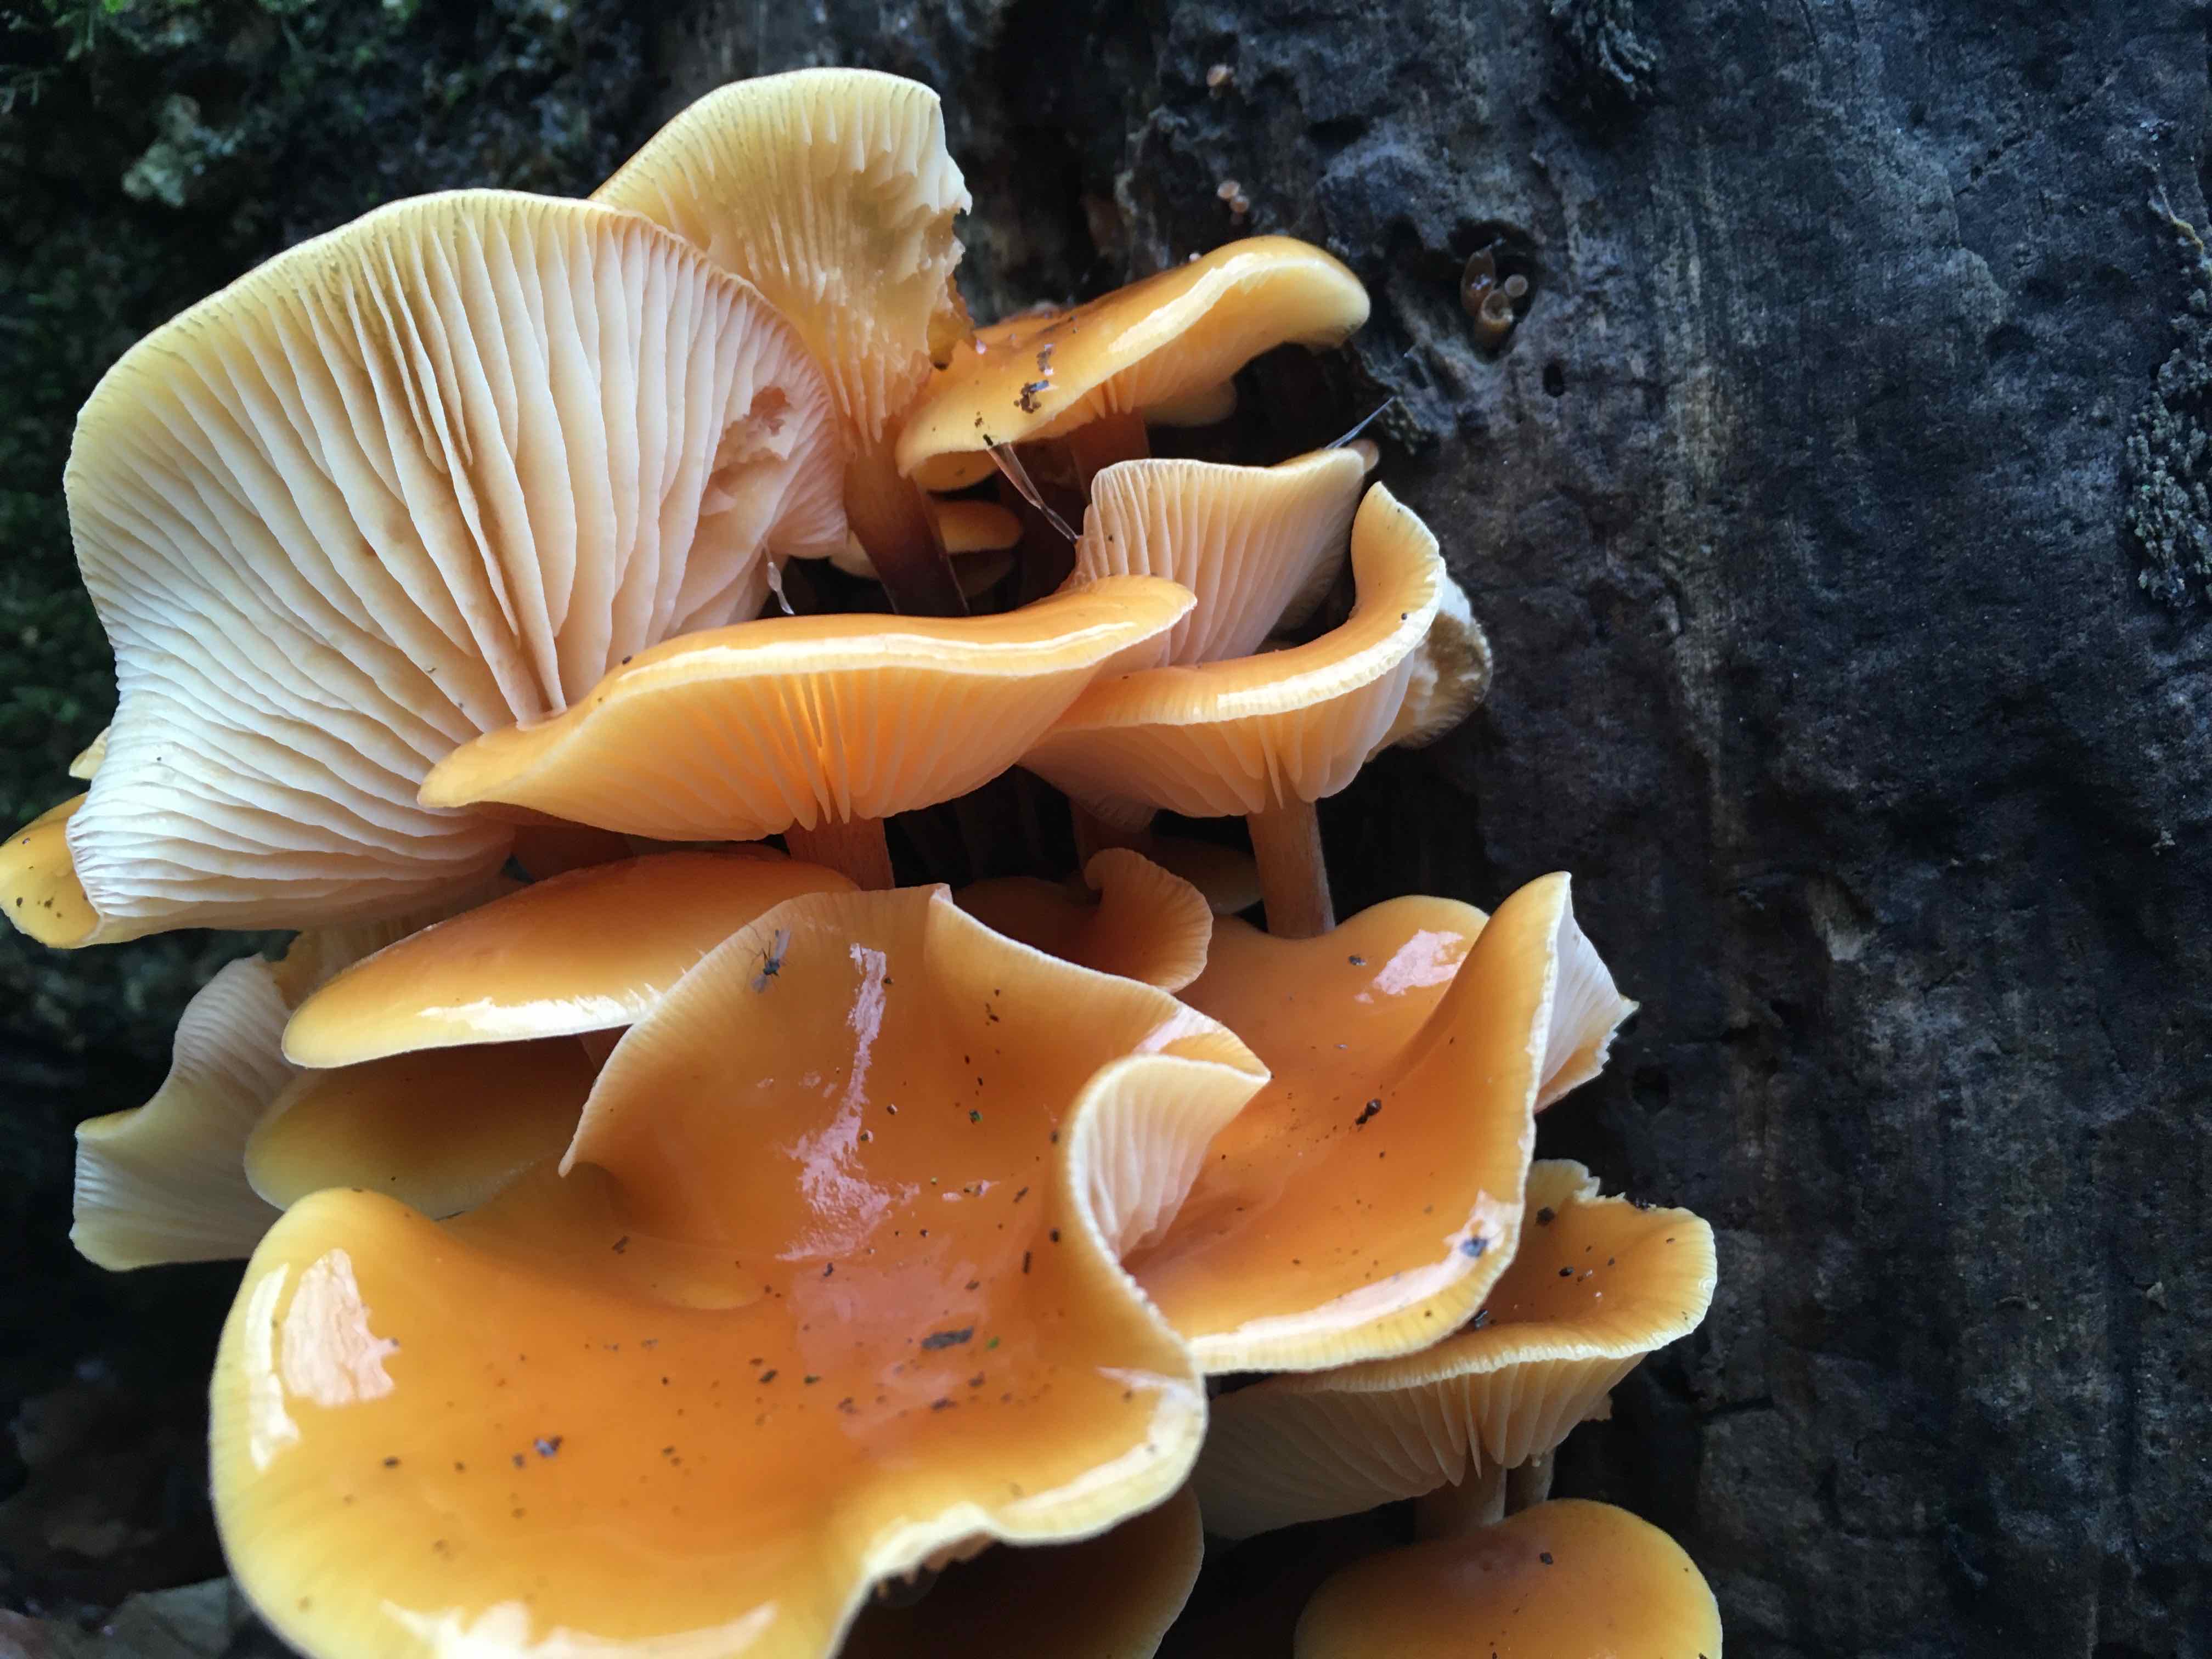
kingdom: Fungi
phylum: Basidiomycota
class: Agaricomycetes
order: Agaricales
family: Physalacriaceae
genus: Flammulina
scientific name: Flammulina
